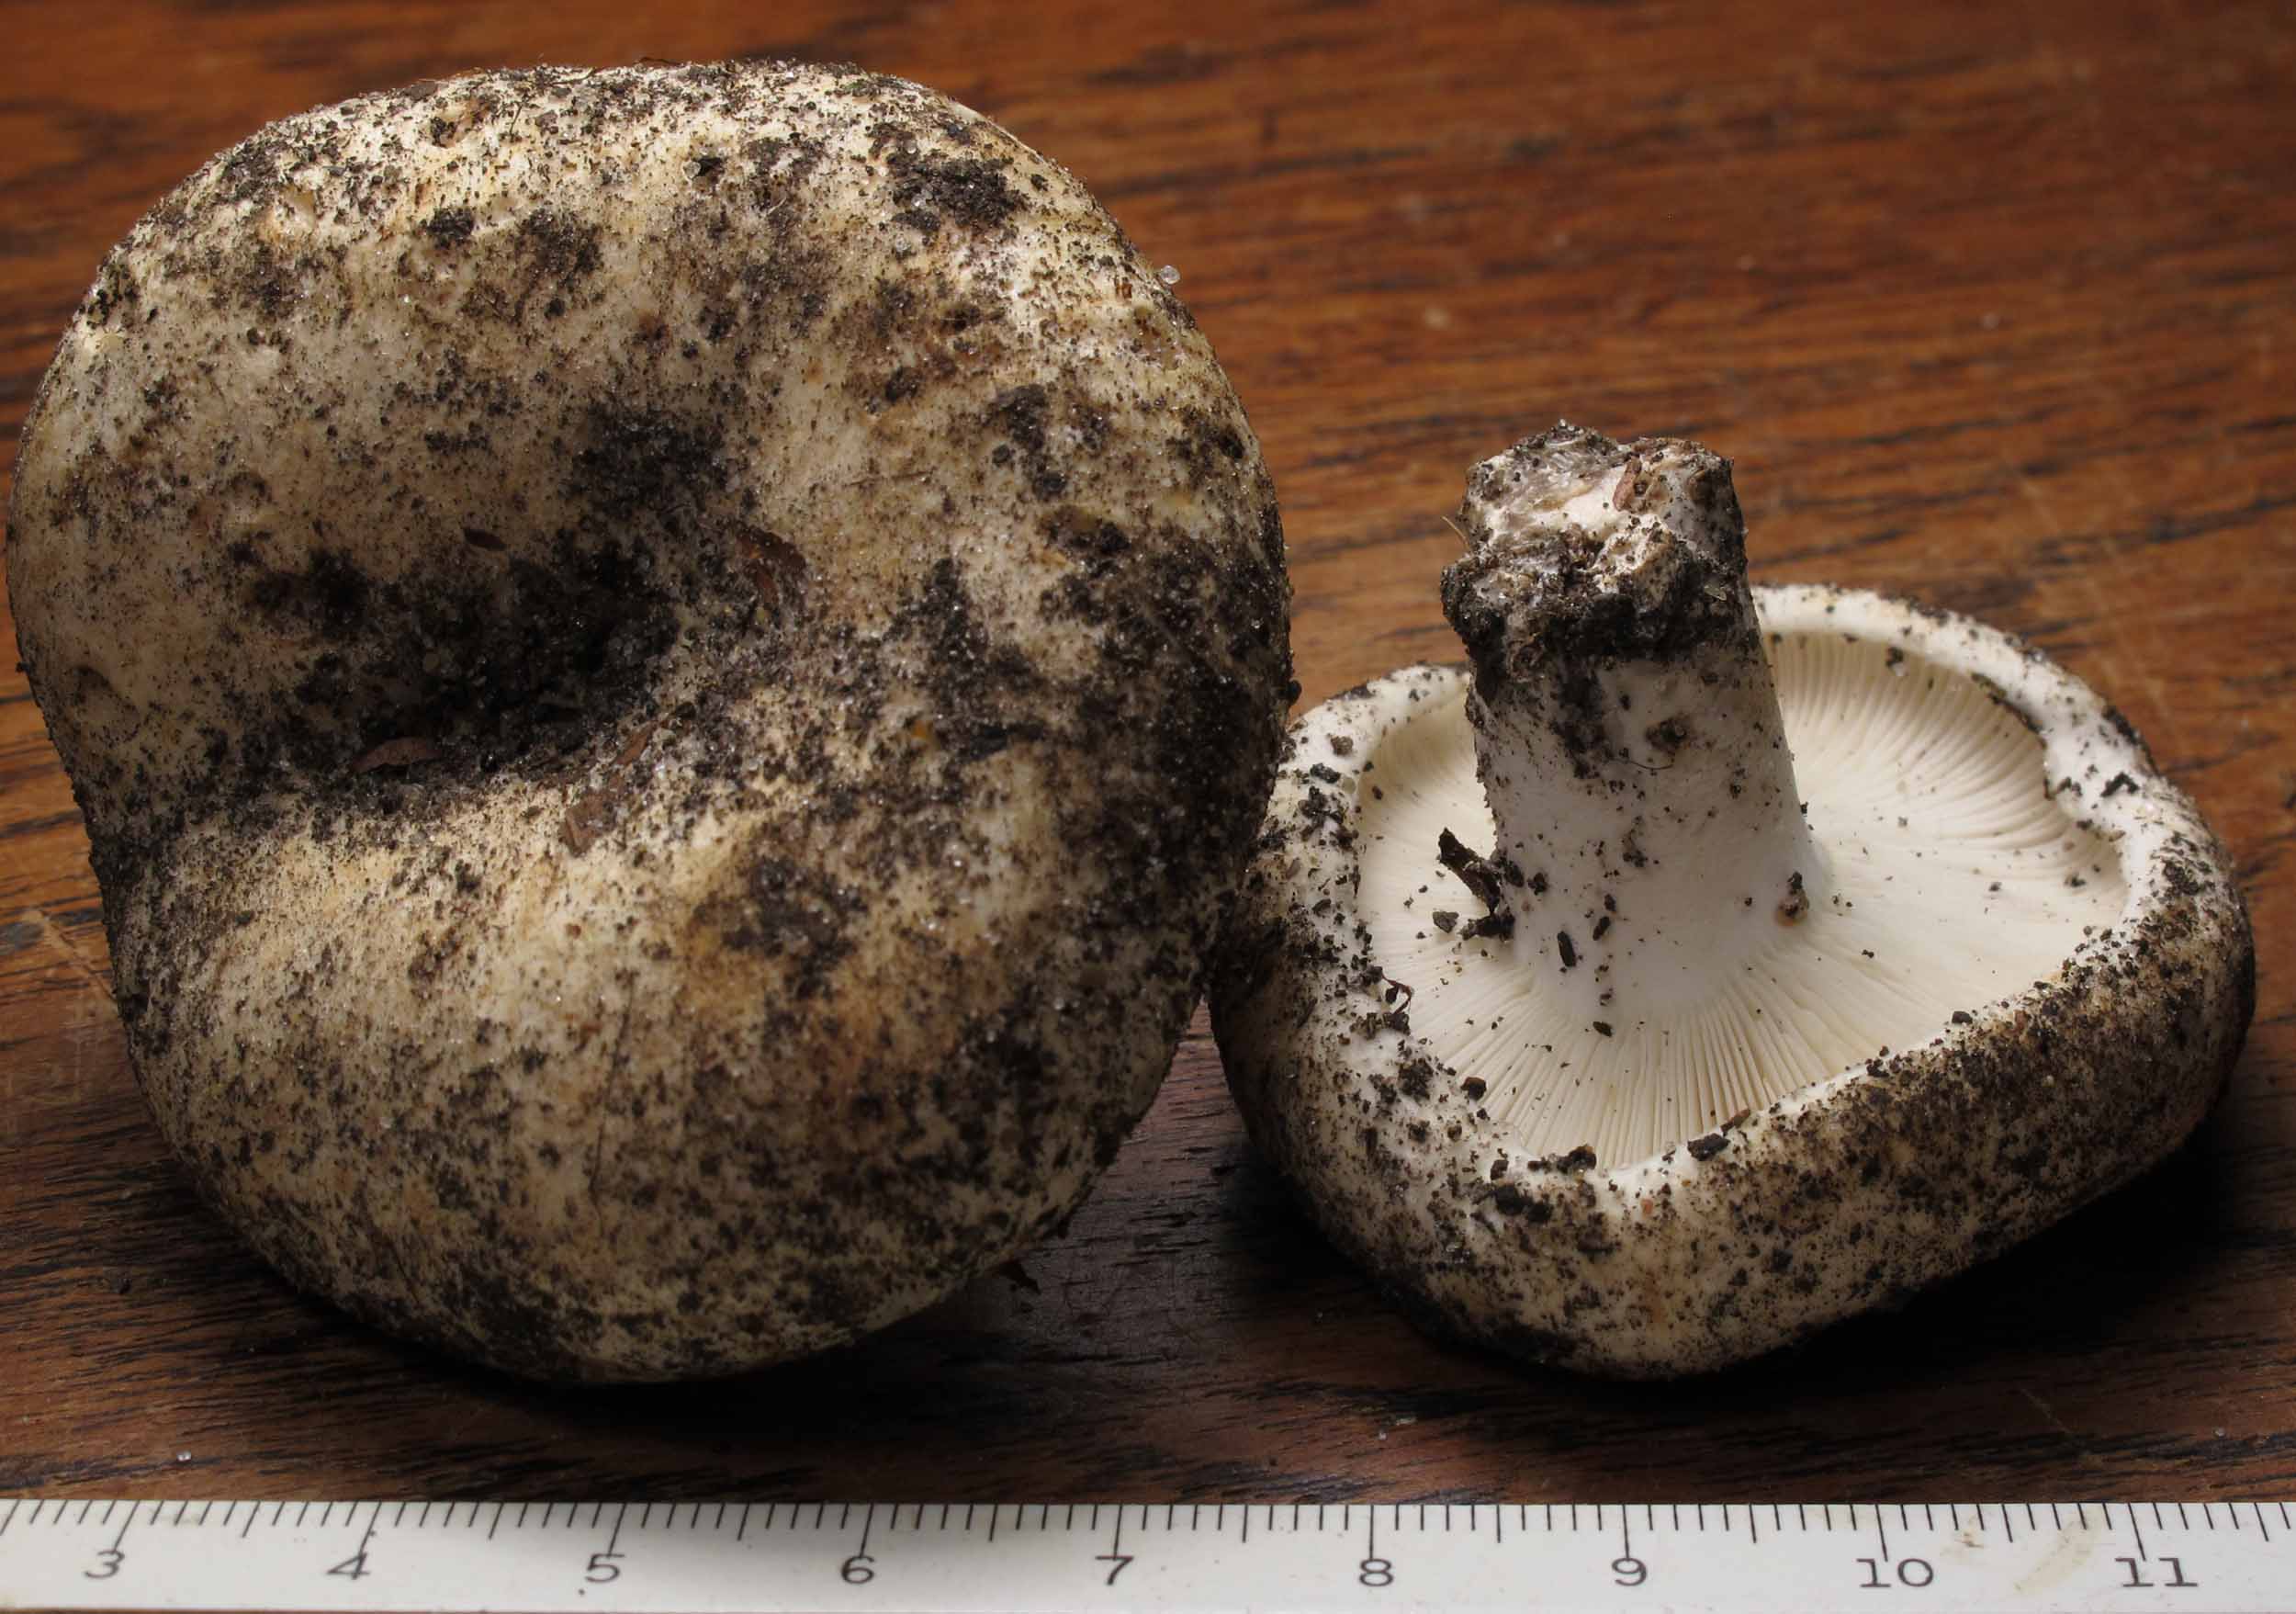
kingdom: Fungi
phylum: Basidiomycota
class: Agaricomycetes
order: Russulales
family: Russulaceae
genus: Russula
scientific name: Russula chloroides
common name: grønhalset tragt-skørhat
